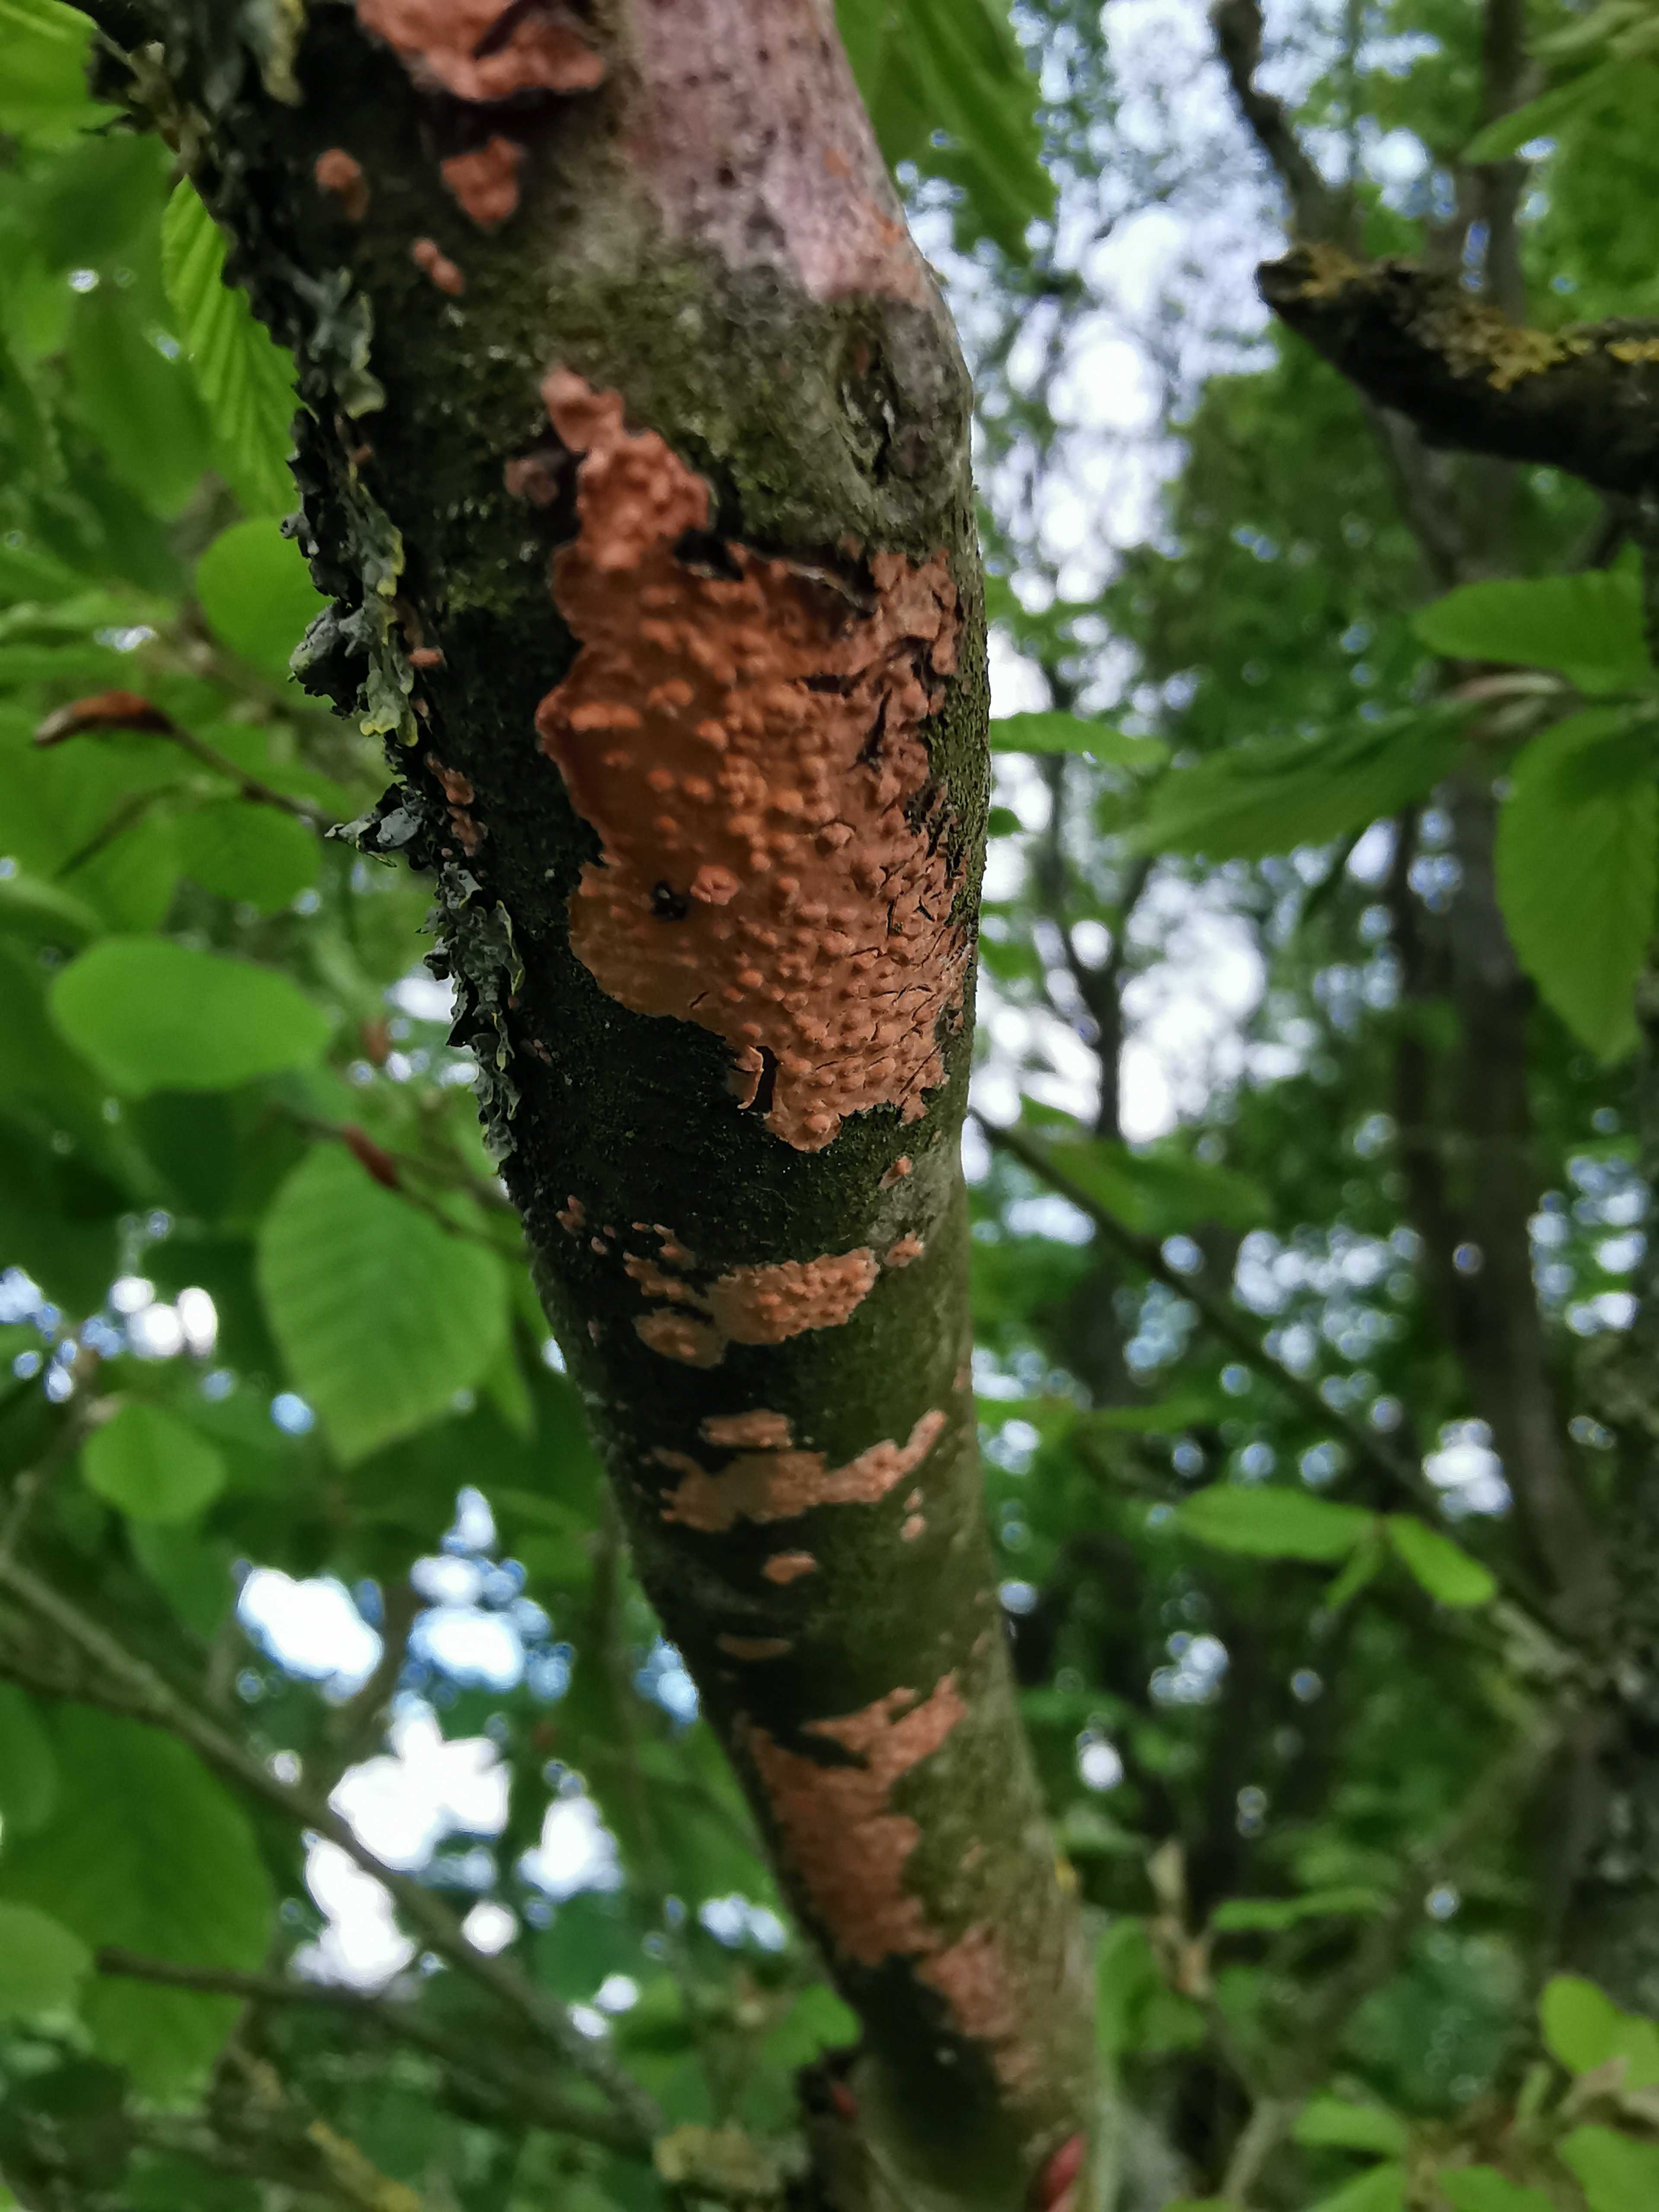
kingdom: Fungi
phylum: Basidiomycota
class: Agaricomycetes
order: Russulales
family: Peniophoraceae
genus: Peniophora
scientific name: Peniophora incarnata
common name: laksefarvet voksskind
